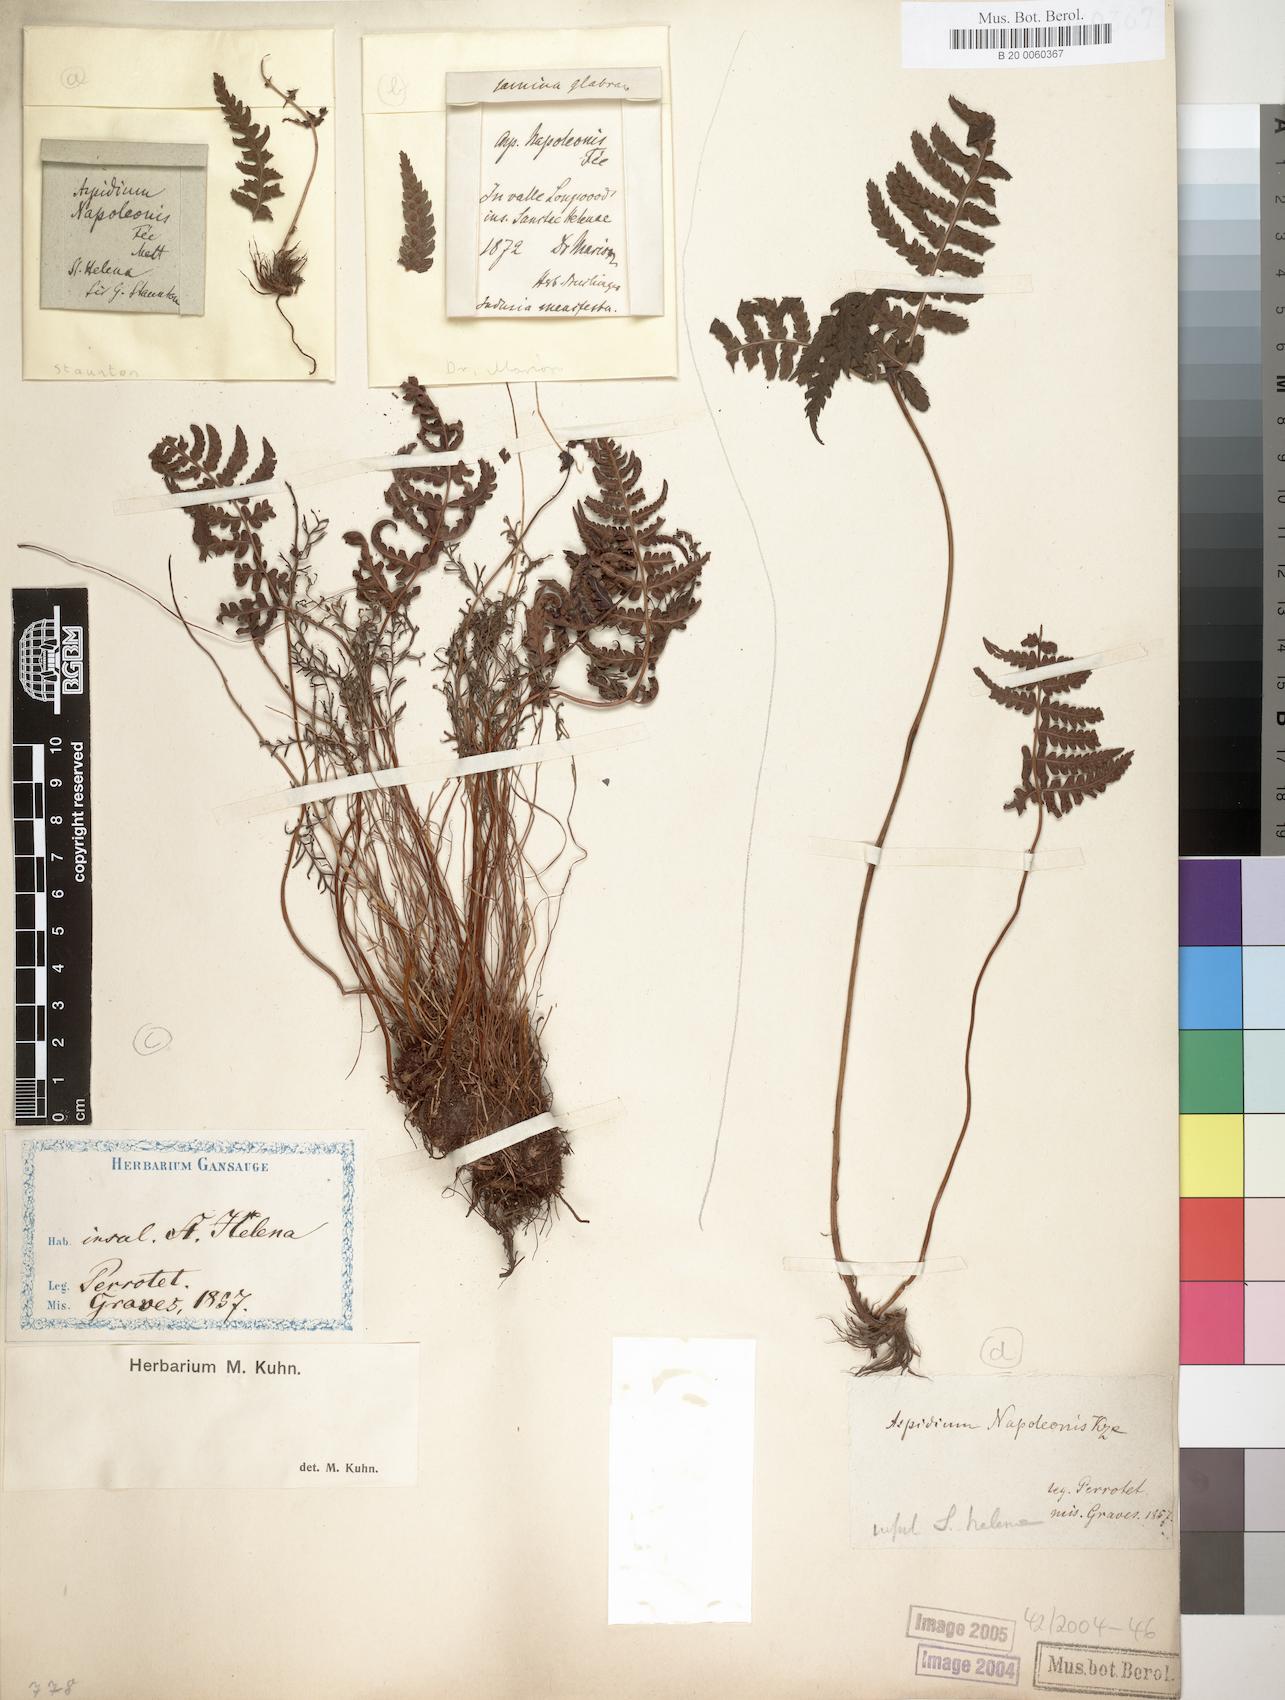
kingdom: Plantae
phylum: Tracheophyta
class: Polypodiopsida
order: Polypodiales
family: Dryopteridaceae
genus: Dryopteris
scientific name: Dryopteris napoleonis
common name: Small kidney fern
